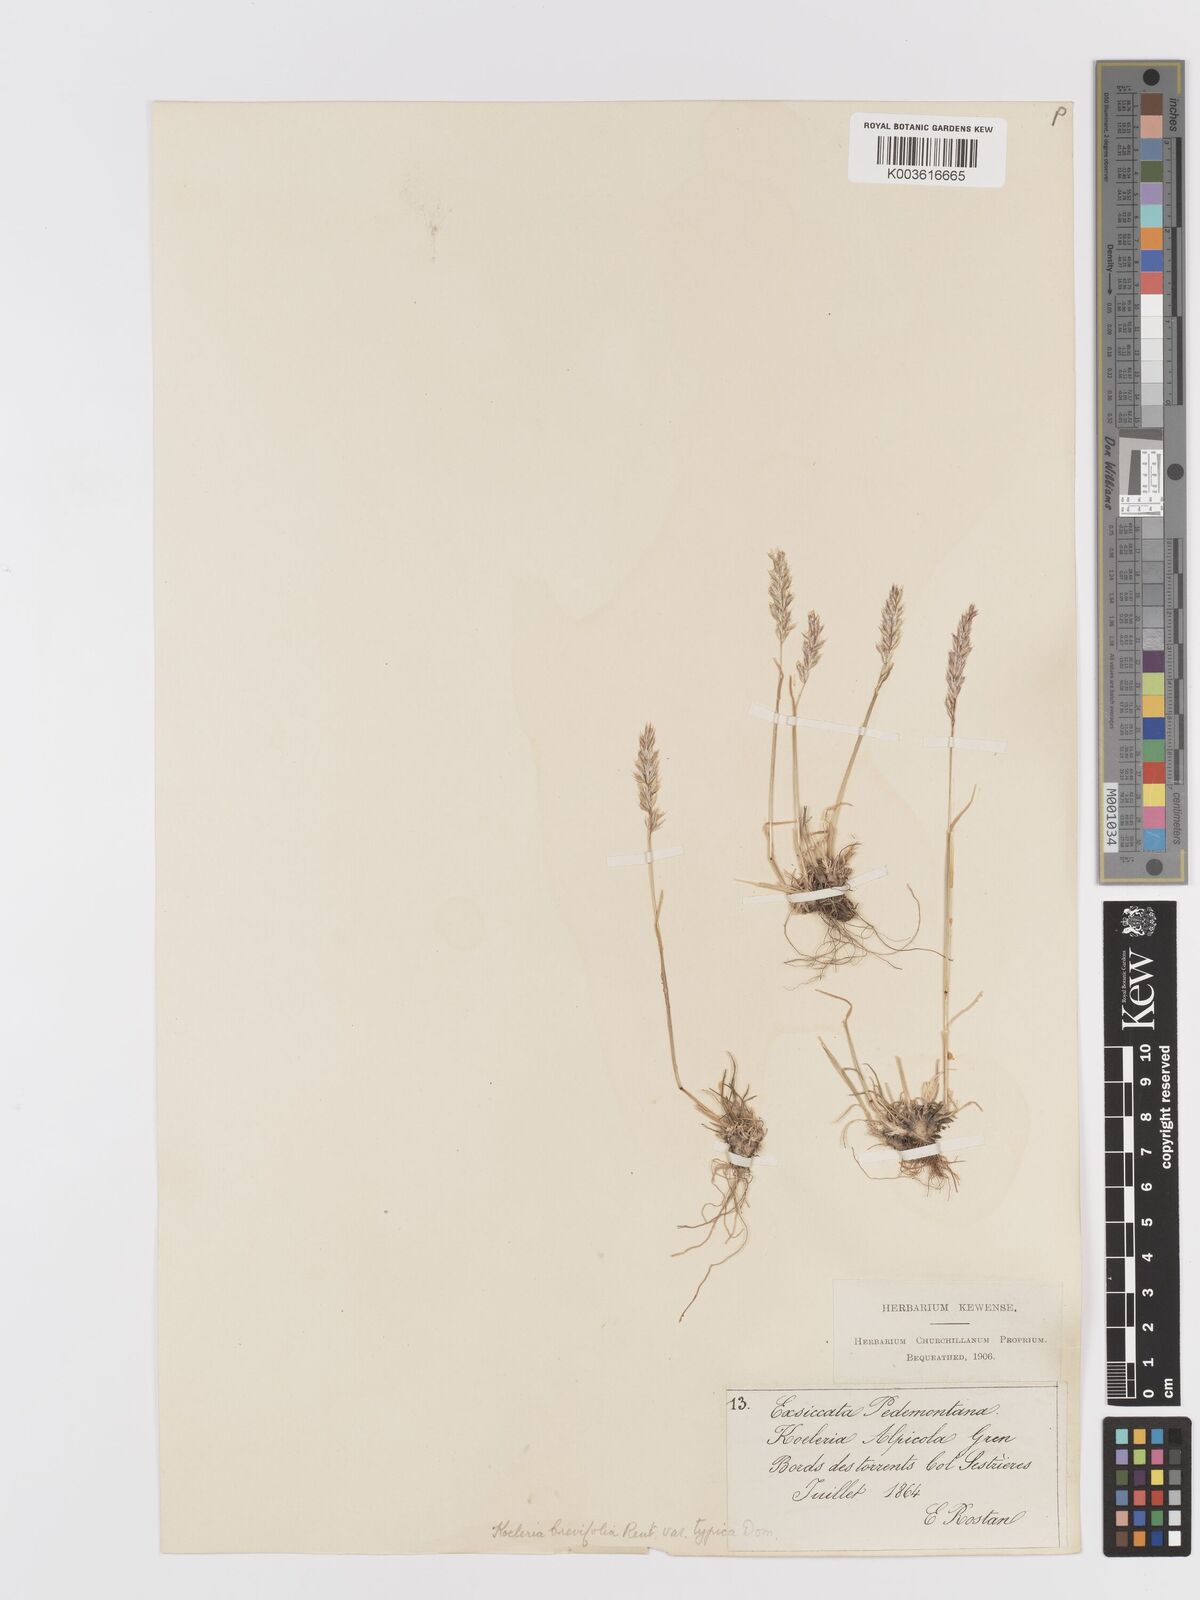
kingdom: Plantae
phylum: Tracheophyta
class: Liliopsida
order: Poales
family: Poaceae
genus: Koeleria
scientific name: Koeleria cenisia
